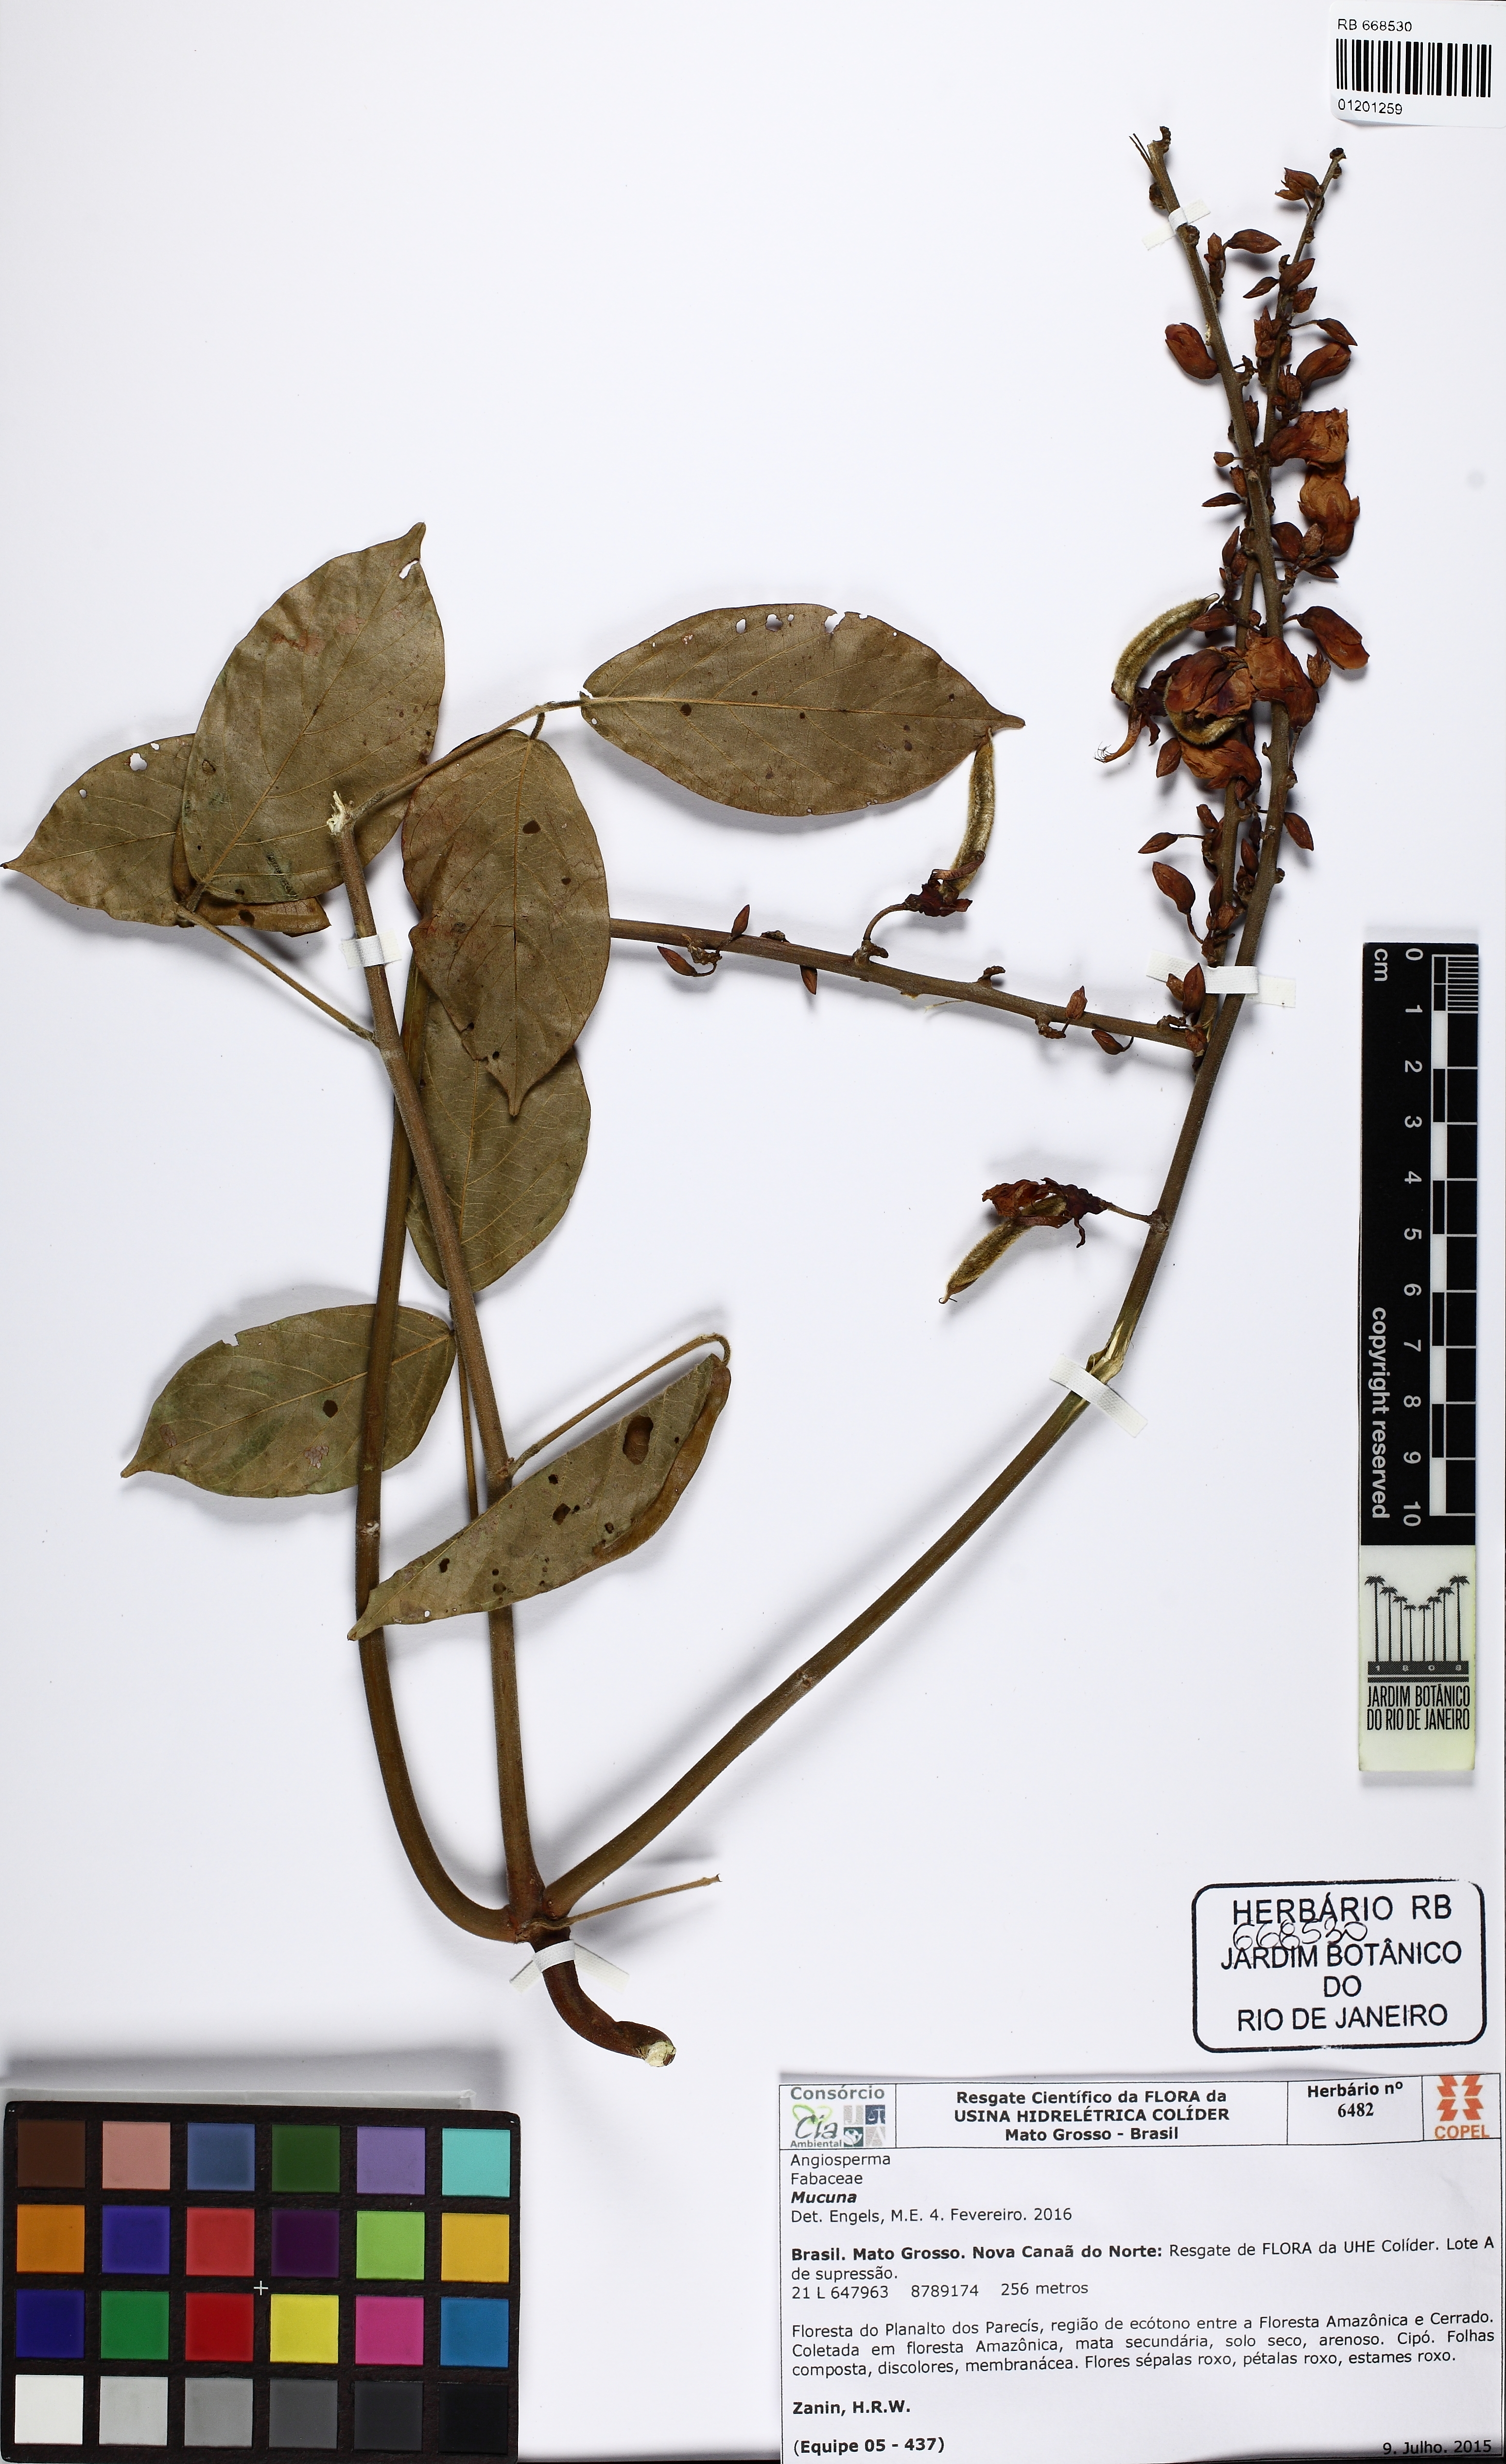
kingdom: Plantae
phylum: Tracheophyta
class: Magnoliopsida
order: Fabales
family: Fabaceae
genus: Mucuna
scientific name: Mucuna
